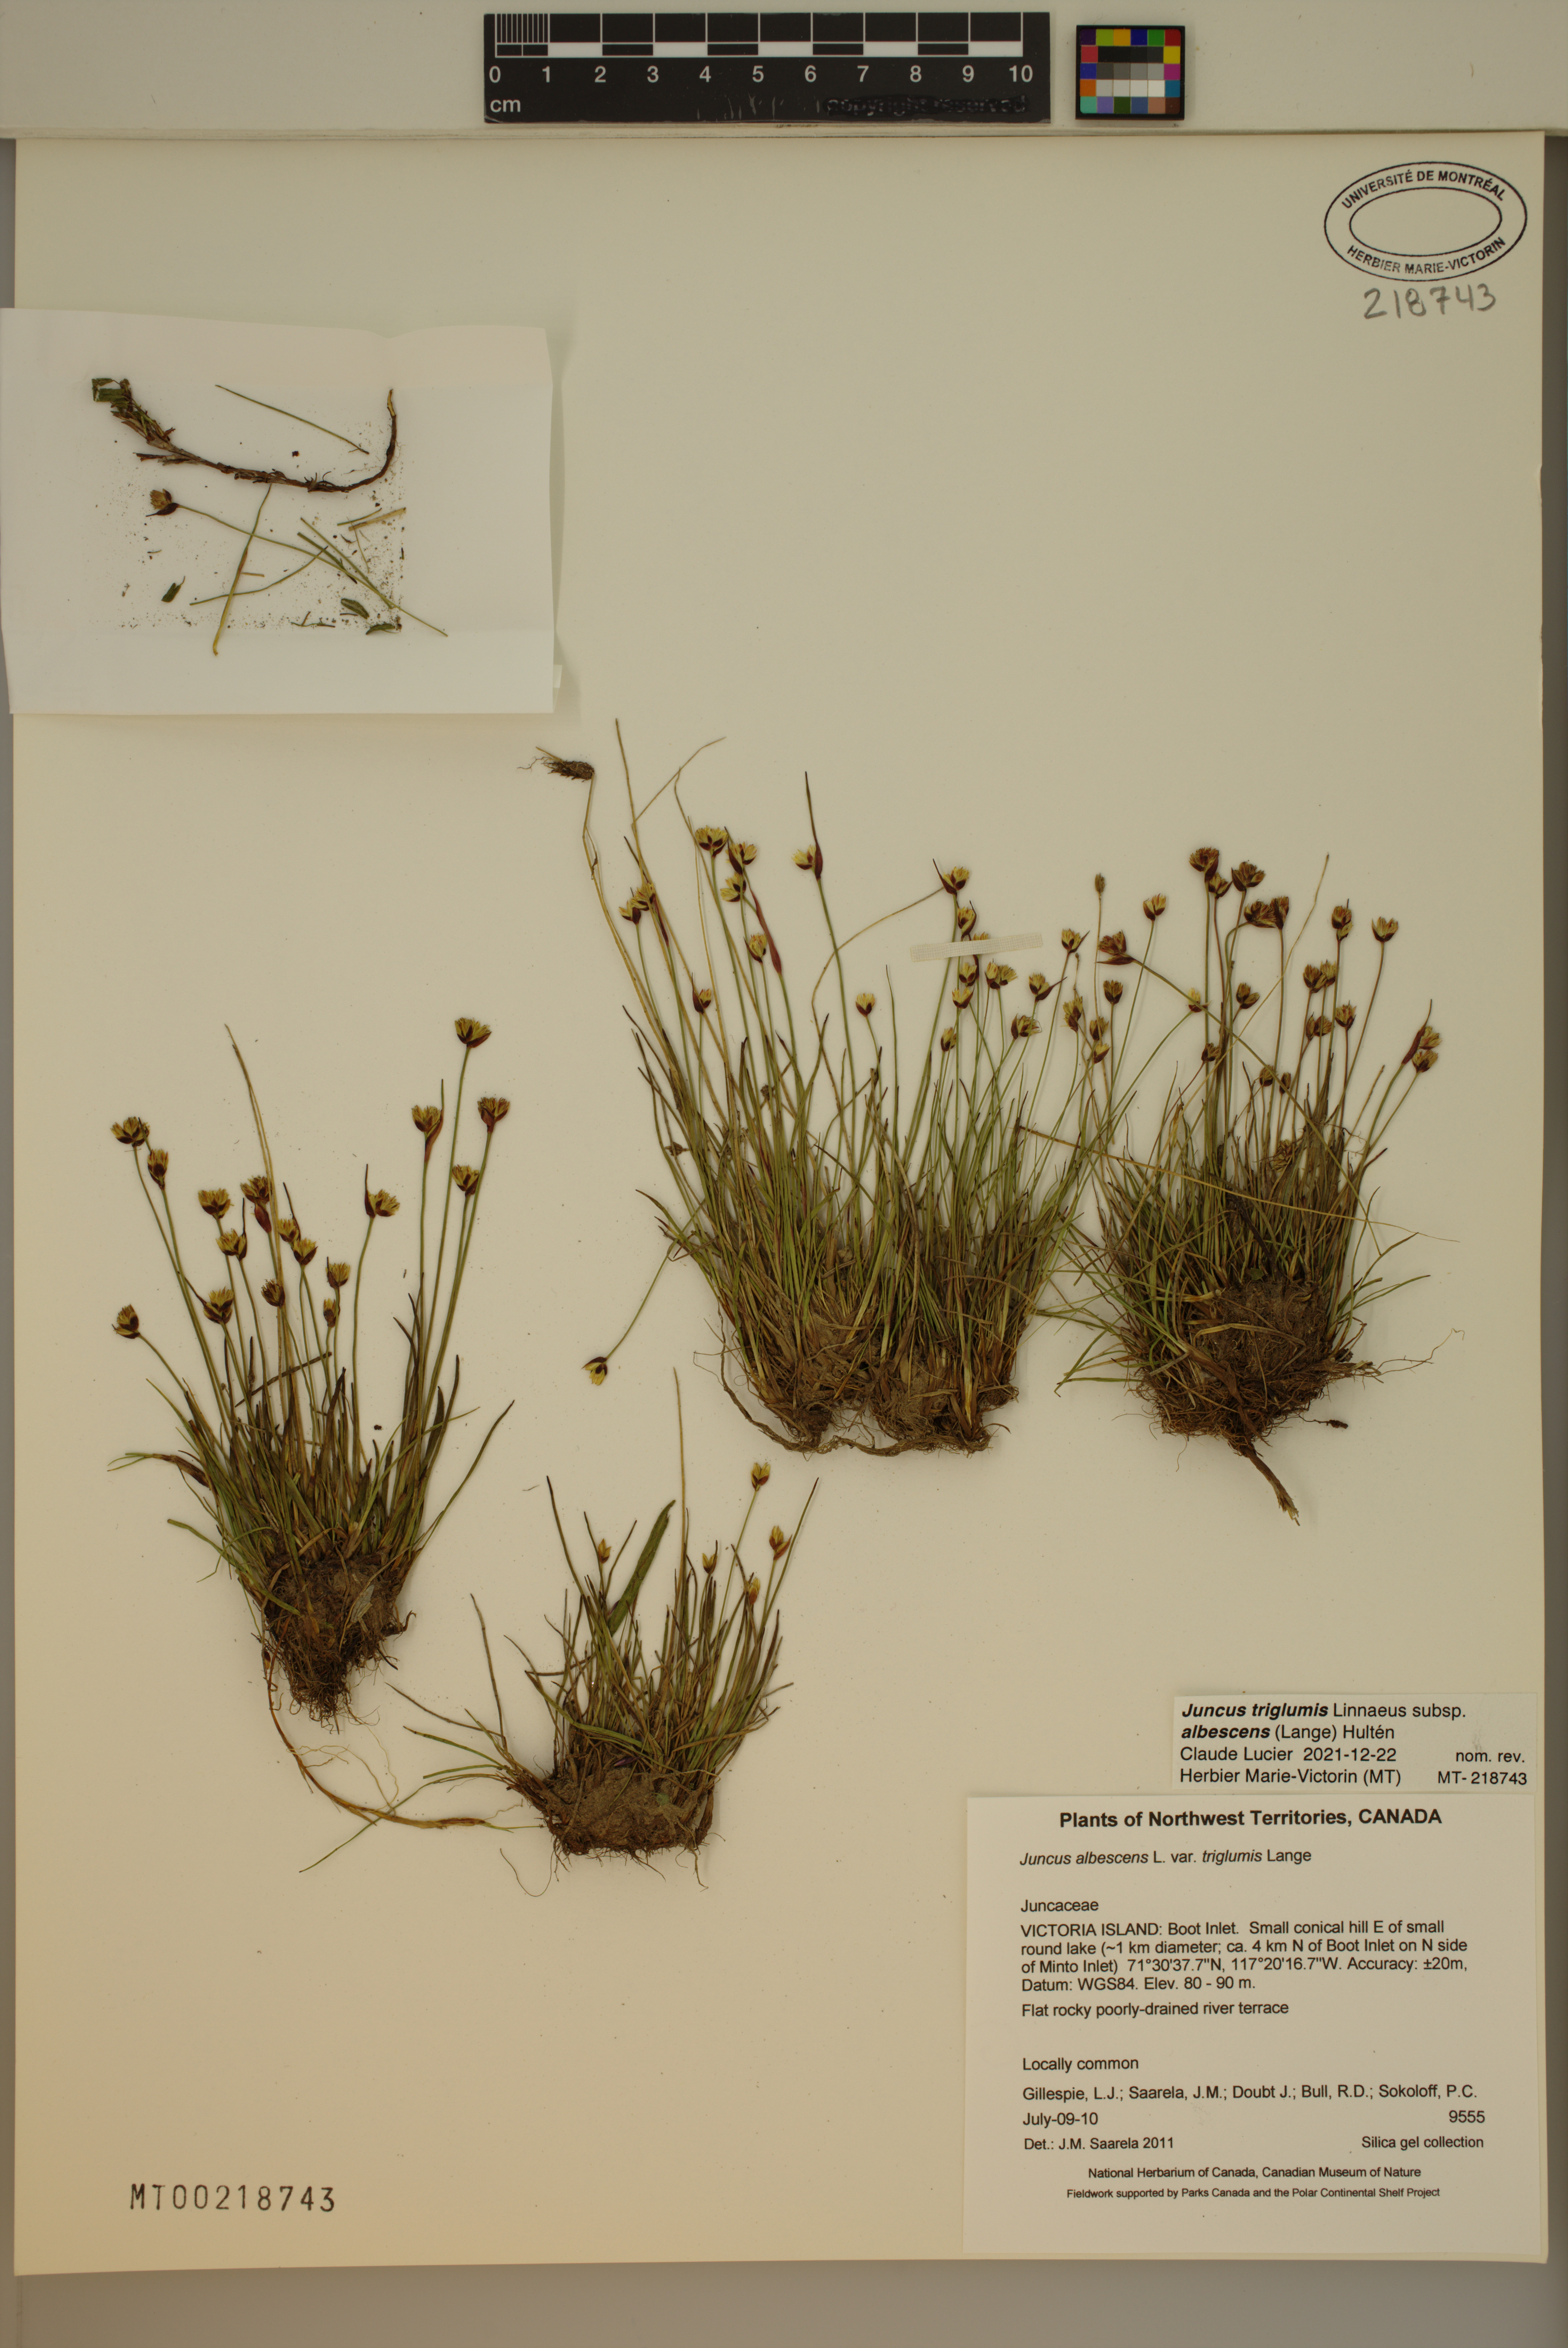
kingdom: Plantae
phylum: Tracheophyta
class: Liliopsida
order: Poales
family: Juncaceae
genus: Juncus
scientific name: Juncus albescens
